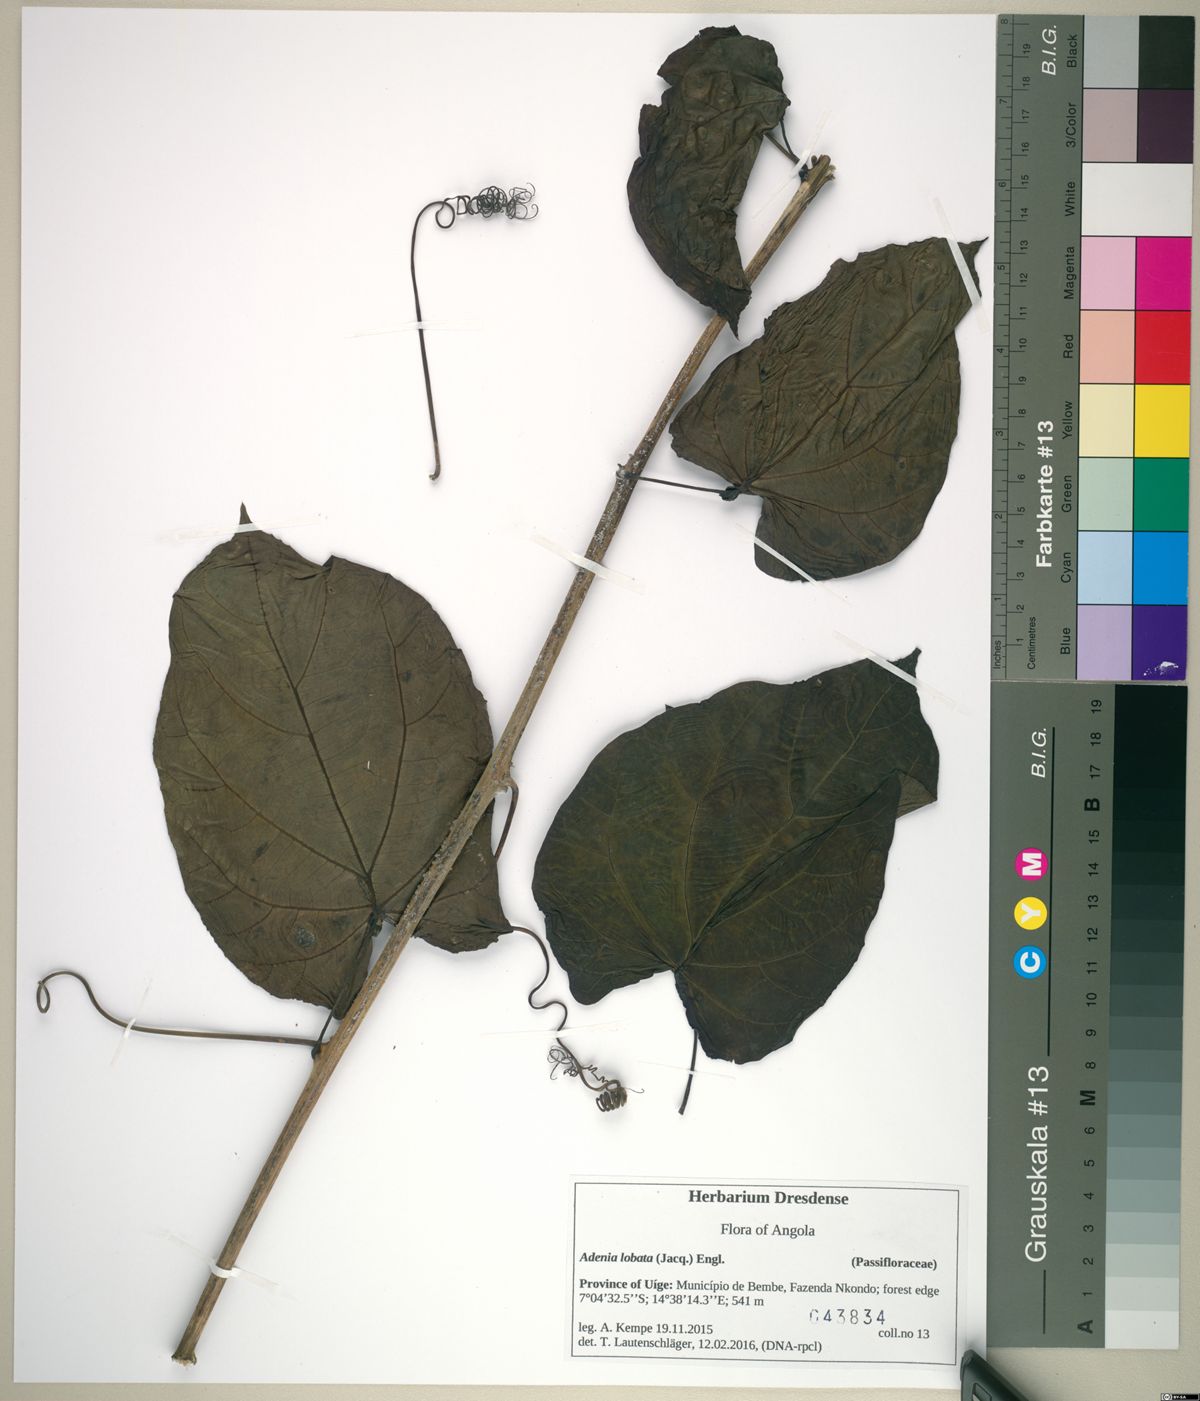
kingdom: Plantae
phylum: Tracheophyta
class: Magnoliopsida
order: Malpighiales
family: Passifloraceae
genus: Adenia
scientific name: Adenia lobata
